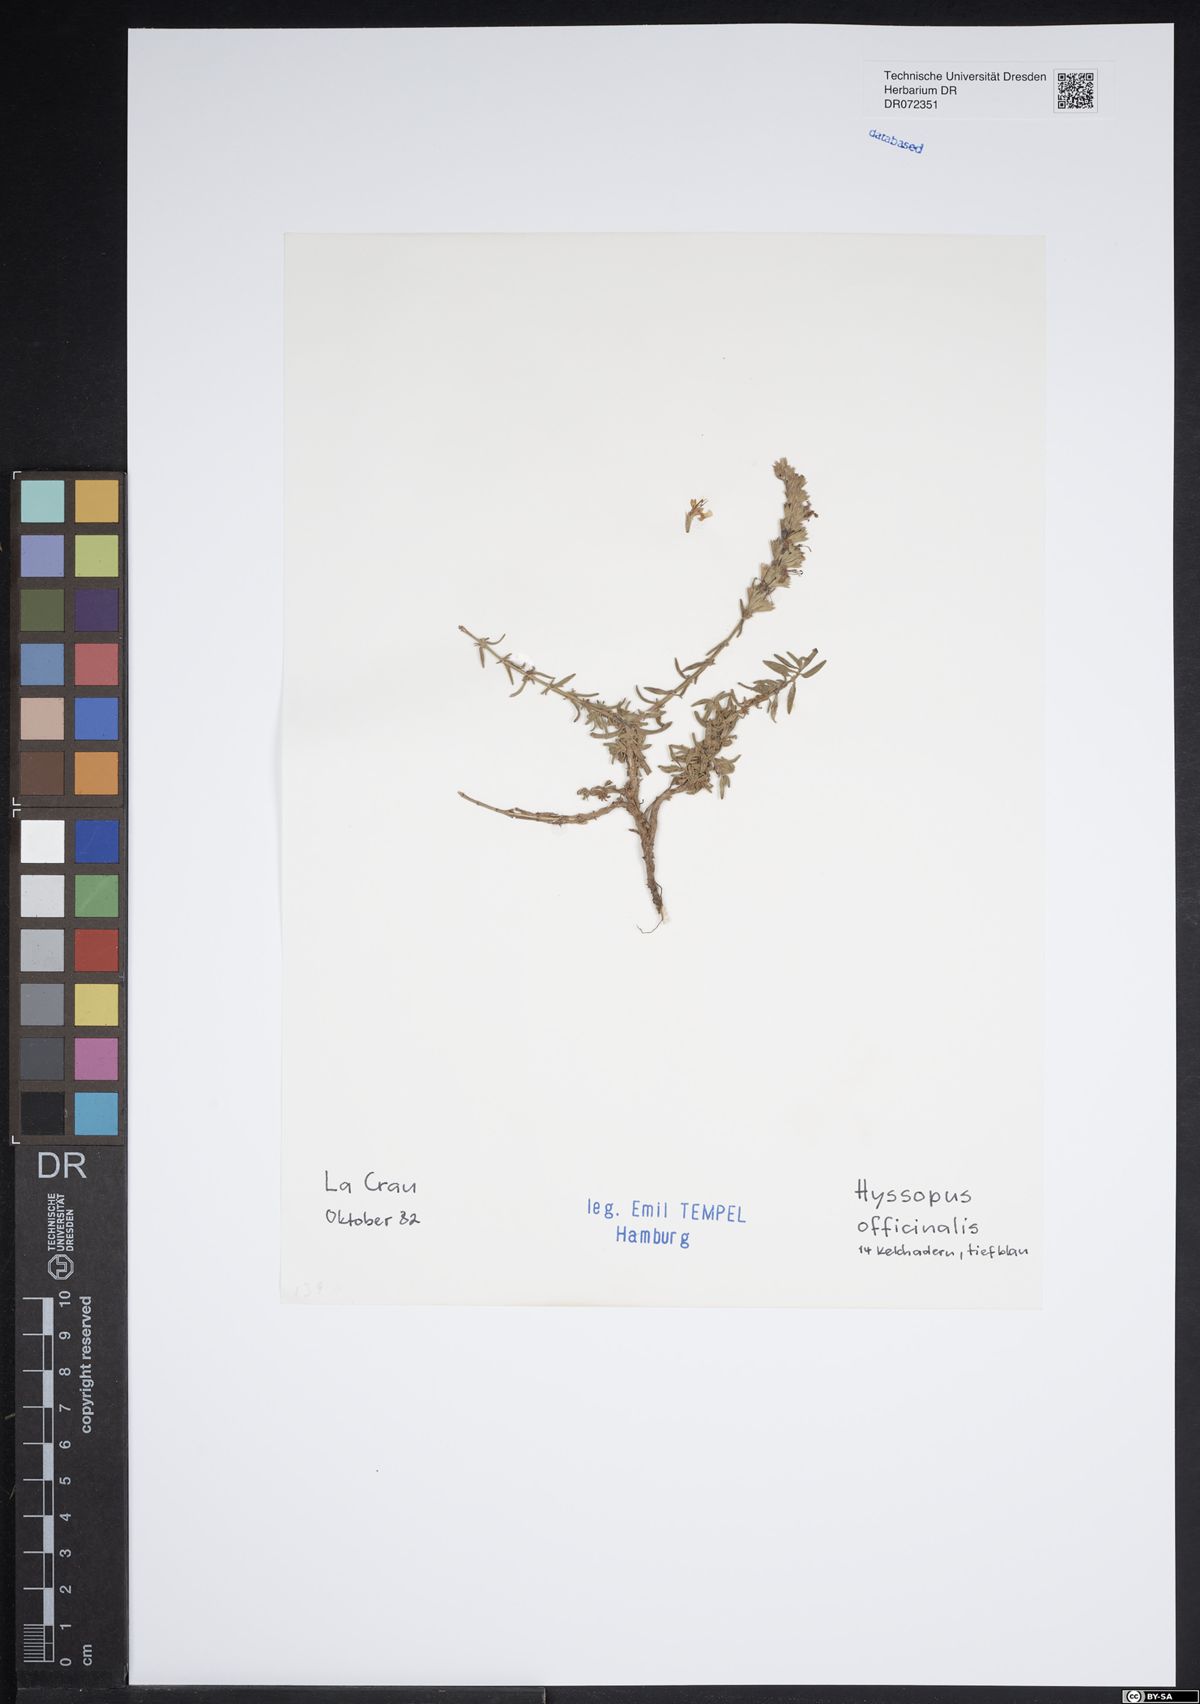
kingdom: Plantae
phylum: Tracheophyta
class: Magnoliopsida
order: Lamiales
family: Lamiaceae
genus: Hyssopus
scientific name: Hyssopus officinalis
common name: Hyssop
